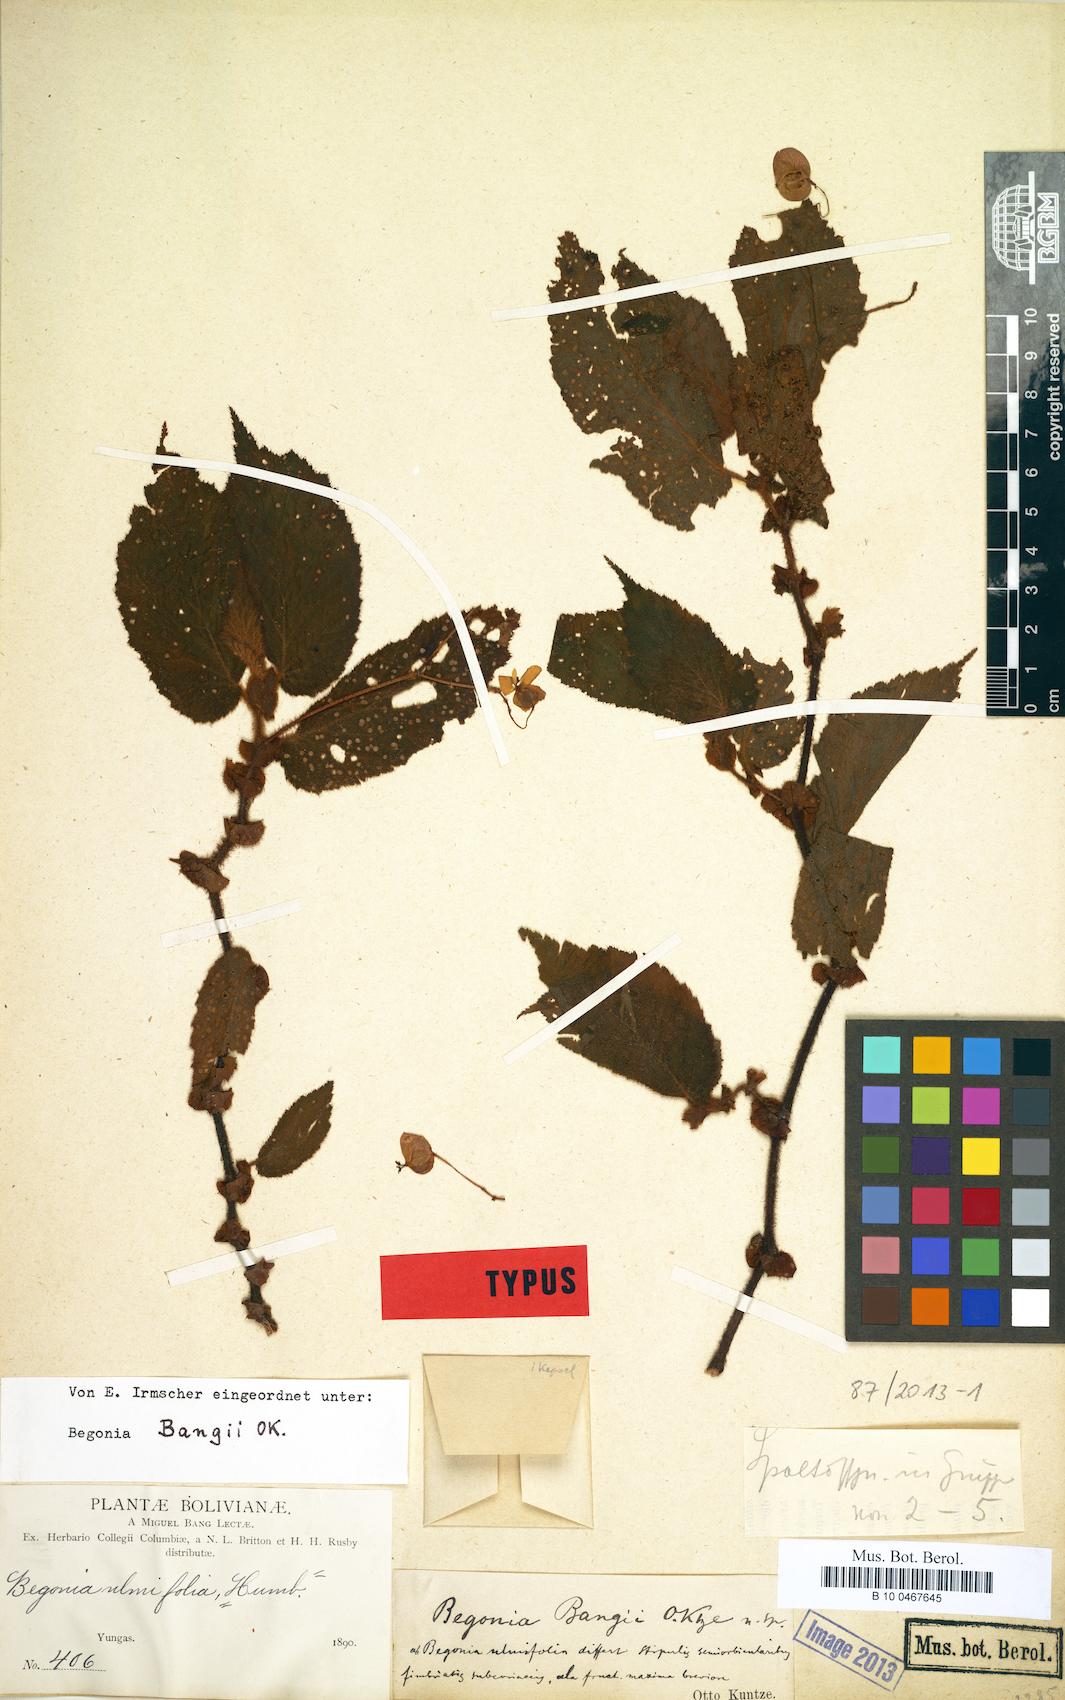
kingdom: Plantae
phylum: Tracheophyta
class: Magnoliopsida
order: Cucurbitales
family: Begoniaceae
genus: Begonia
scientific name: Begonia bangii
